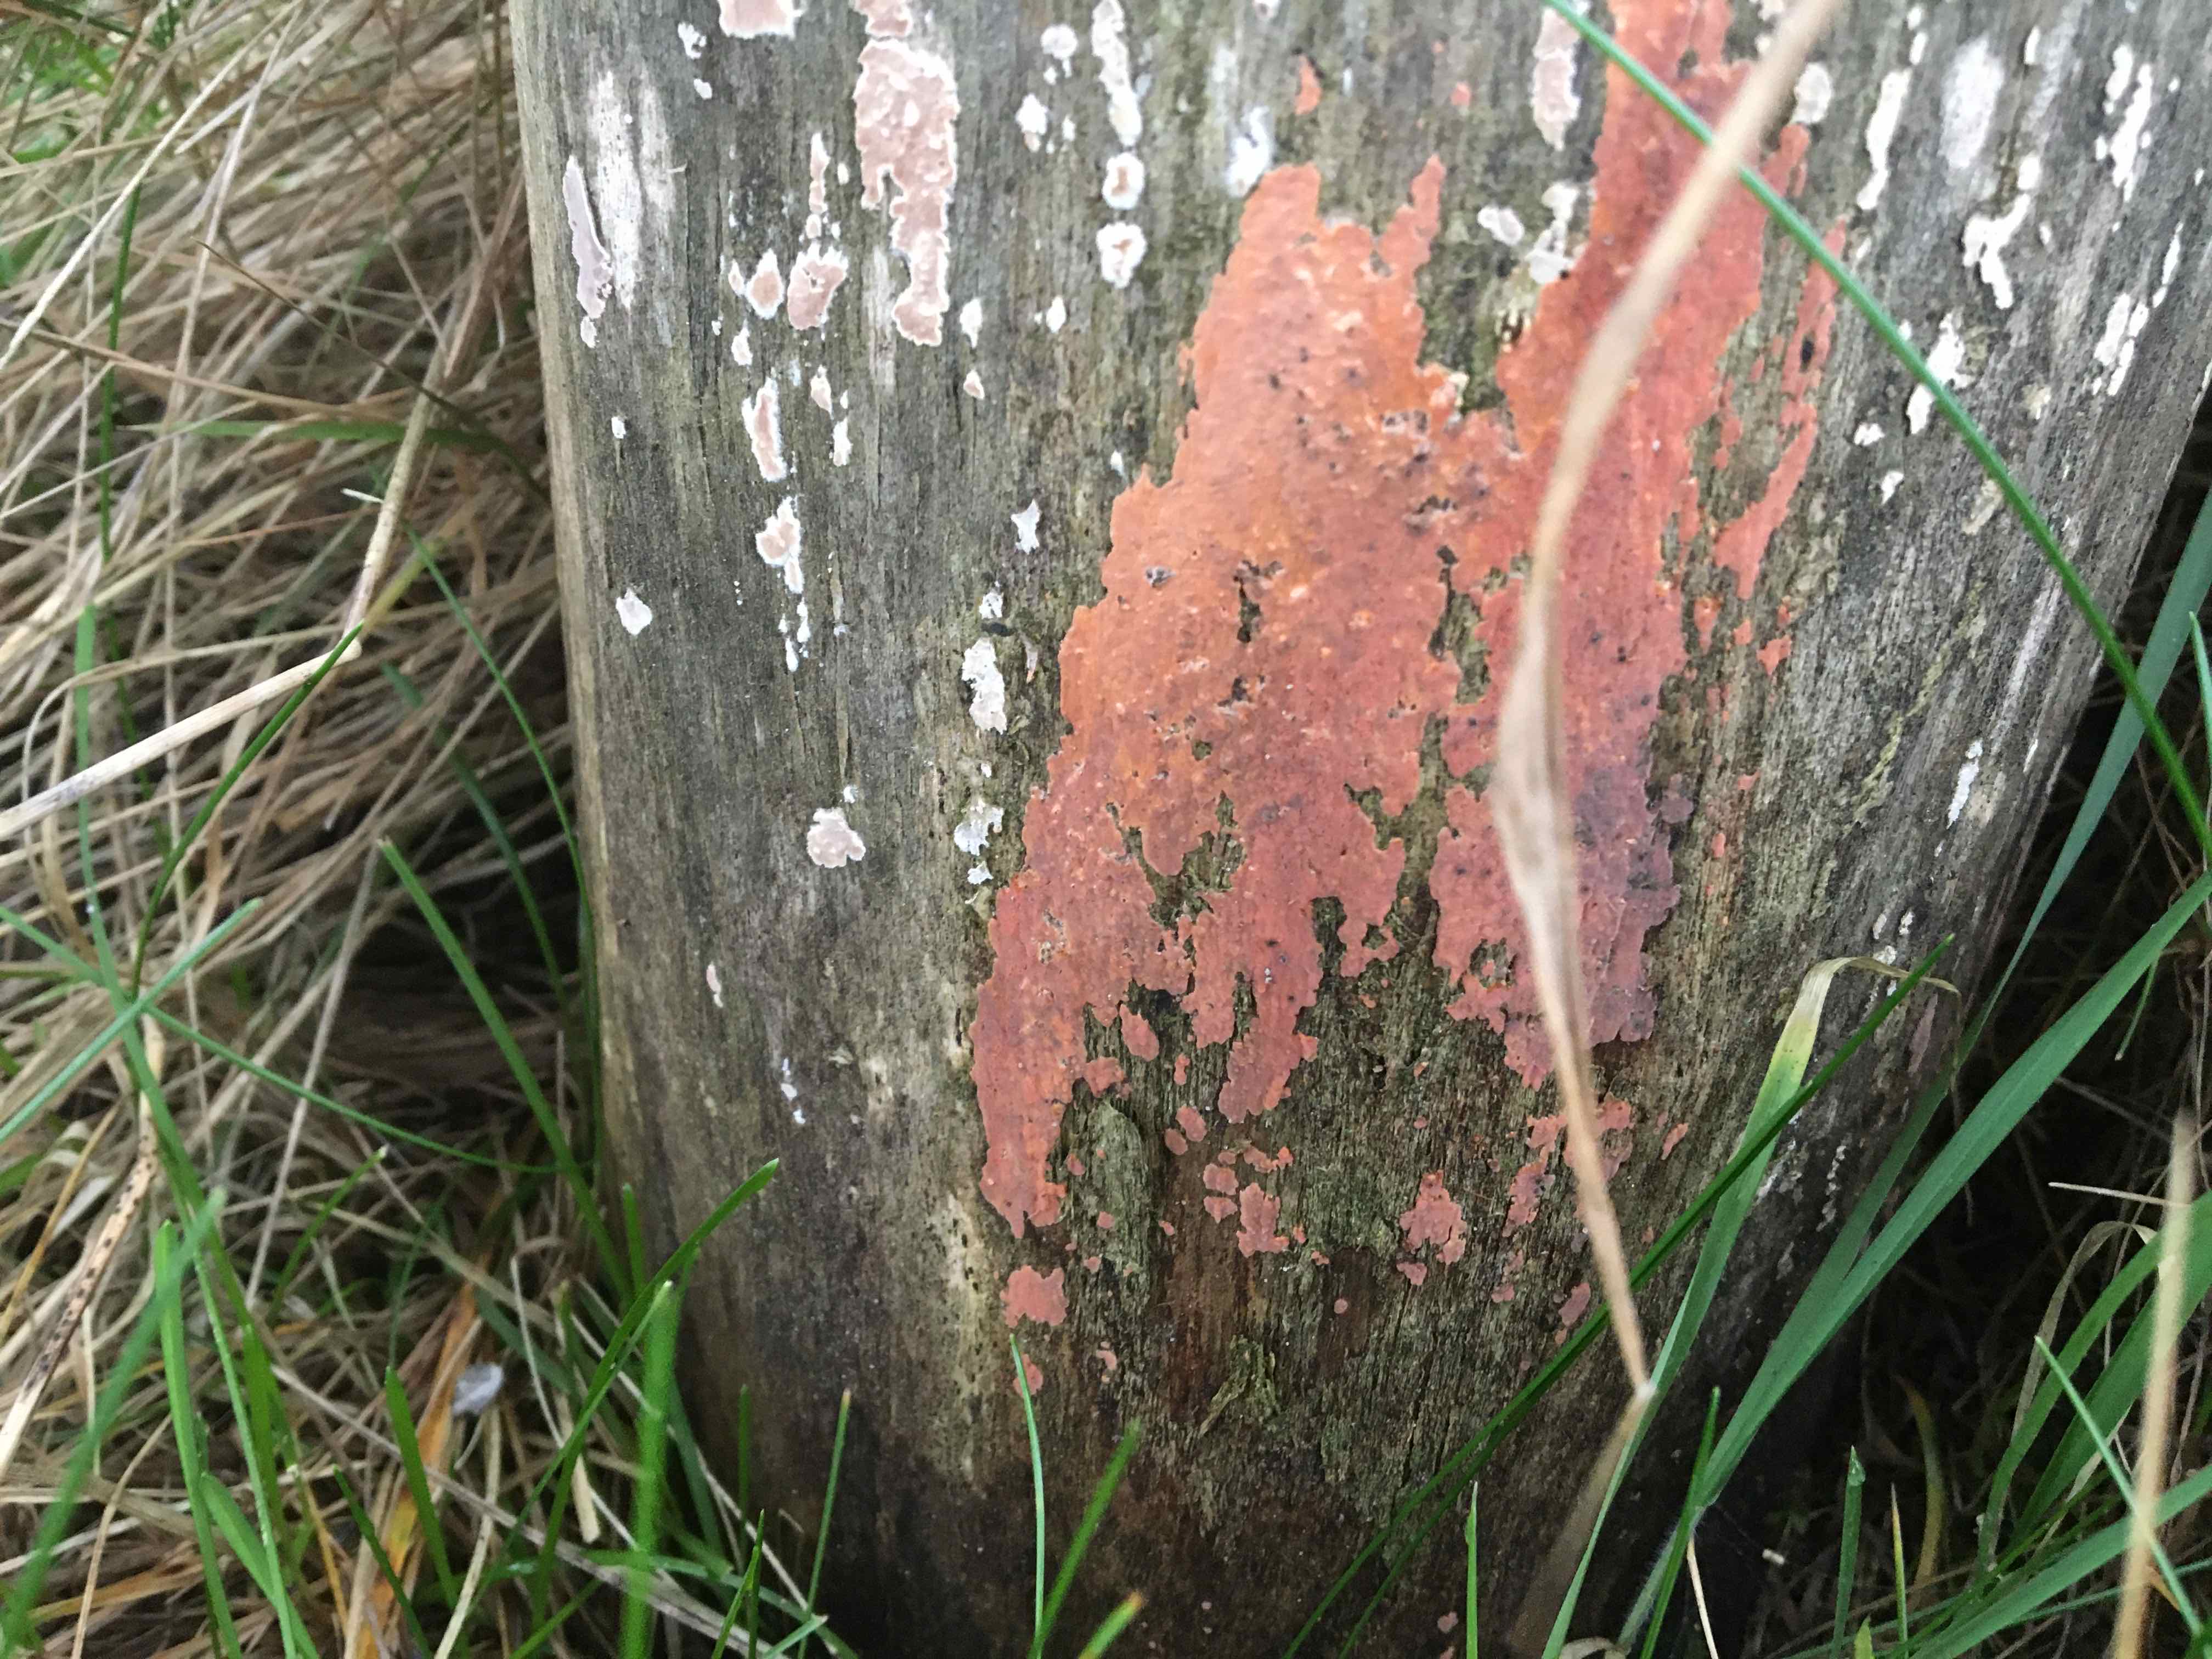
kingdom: Fungi
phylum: Basidiomycota
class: Agaricomycetes
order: Russulales
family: Peniophoraceae
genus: Peniophora
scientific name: Peniophora incarnata
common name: laksefarvet voksskind
